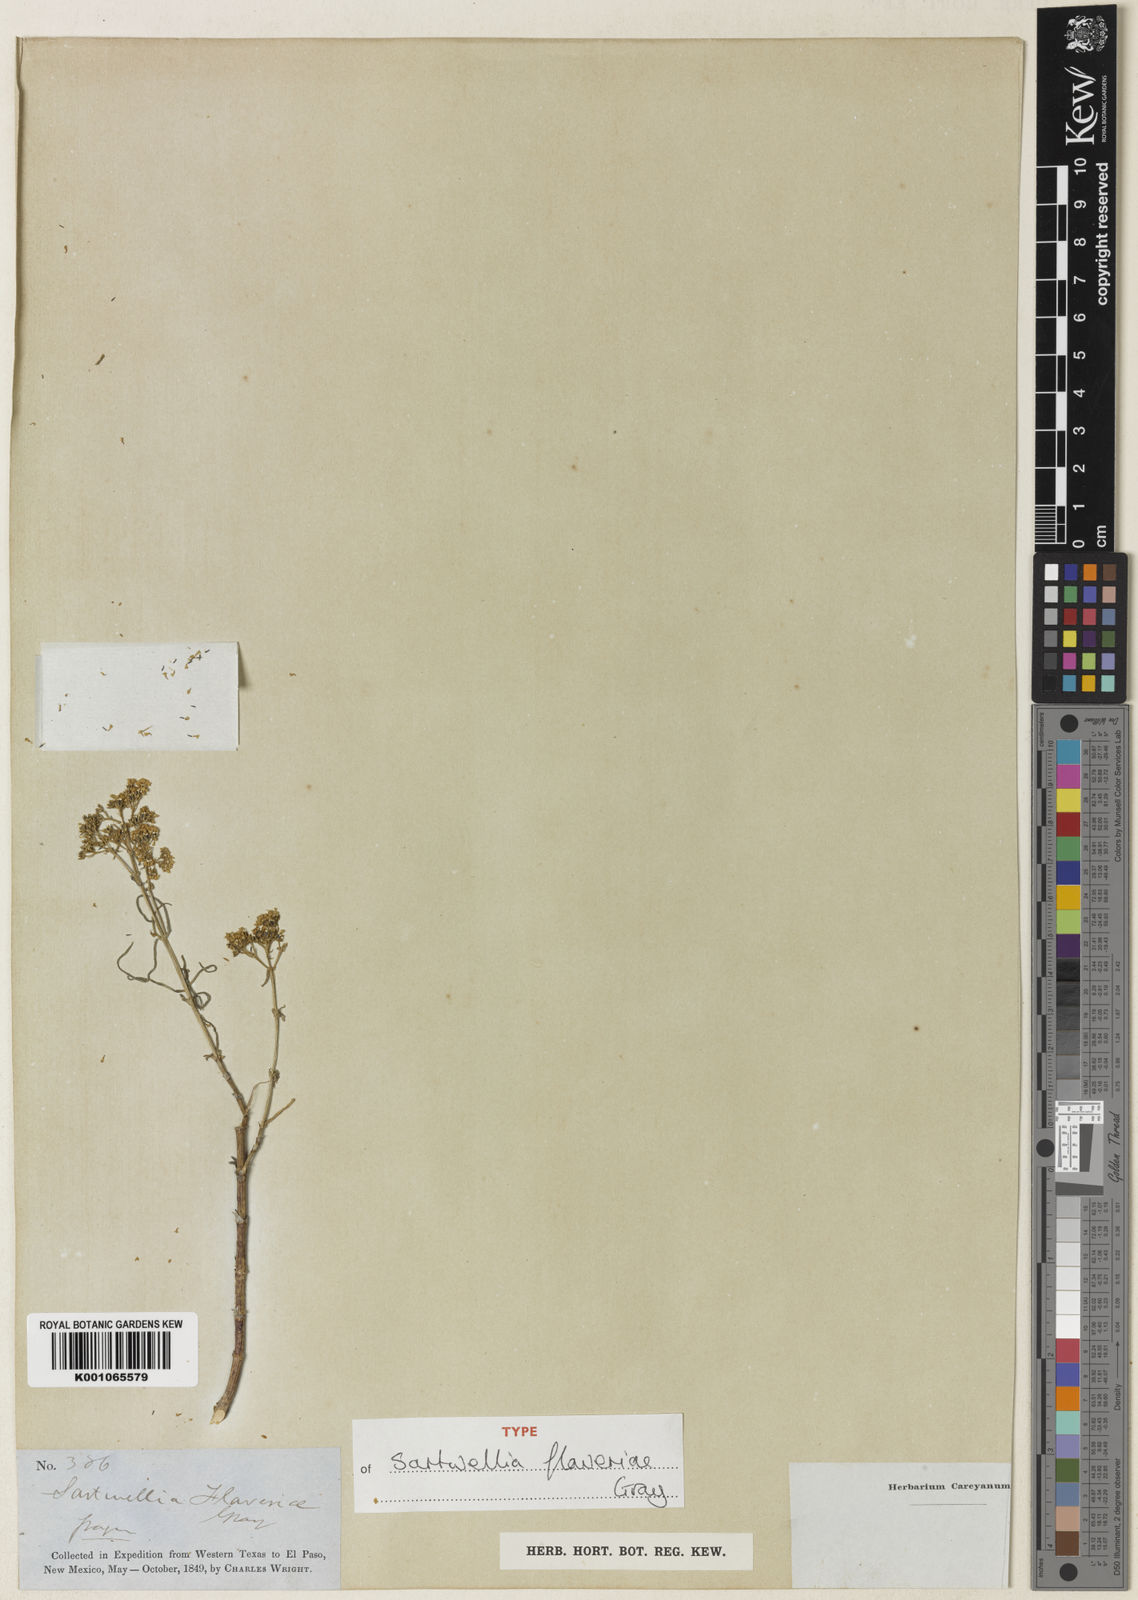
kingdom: Plantae
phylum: Tracheophyta
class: Magnoliopsida
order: Asterales
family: Asteraceae
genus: Sartwellia
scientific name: Sartwellia flaveriae
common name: Sartwellia
